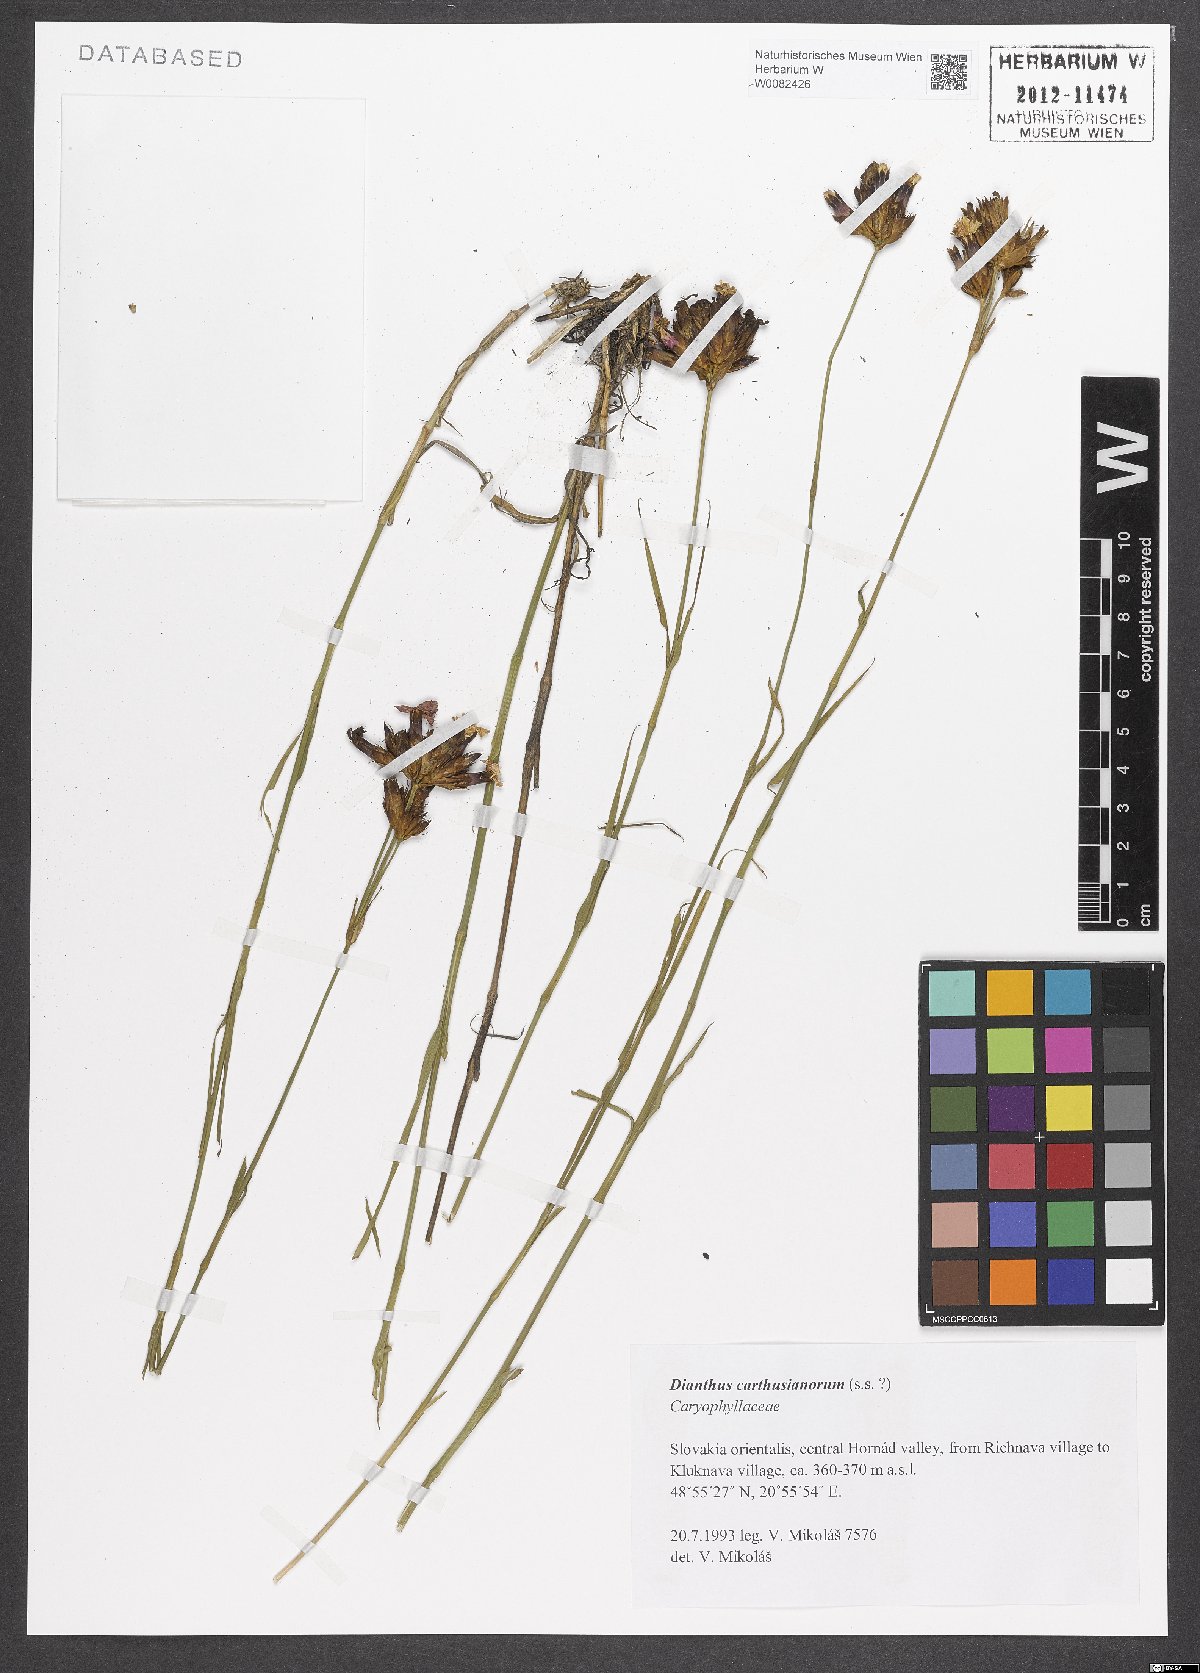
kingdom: Plantae
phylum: Tracheophyta
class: Magnoliopsida
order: Caryophyllales
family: Caryophyllaceae
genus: Dianthus
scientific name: Dianthus carthusianorum
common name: Carthusian pink
